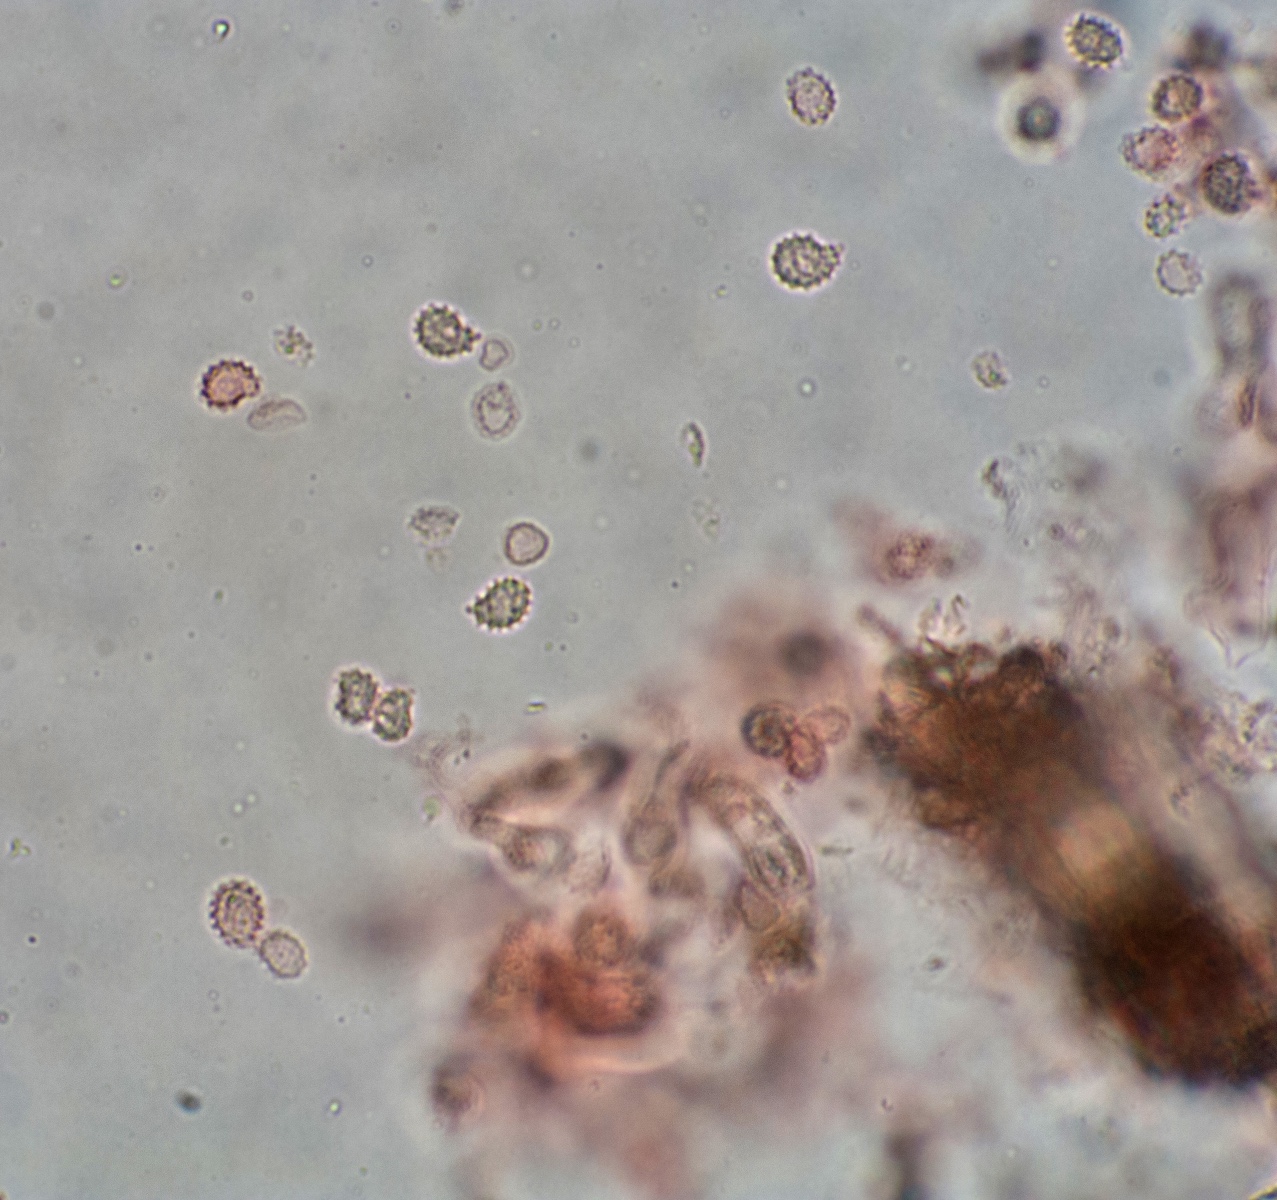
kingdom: Fungi
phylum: Basidiomycota
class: Agaricomycetes
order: Russulales
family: Xenasmataceae
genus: Xenasma
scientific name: Xenasma tulasnelloideum
